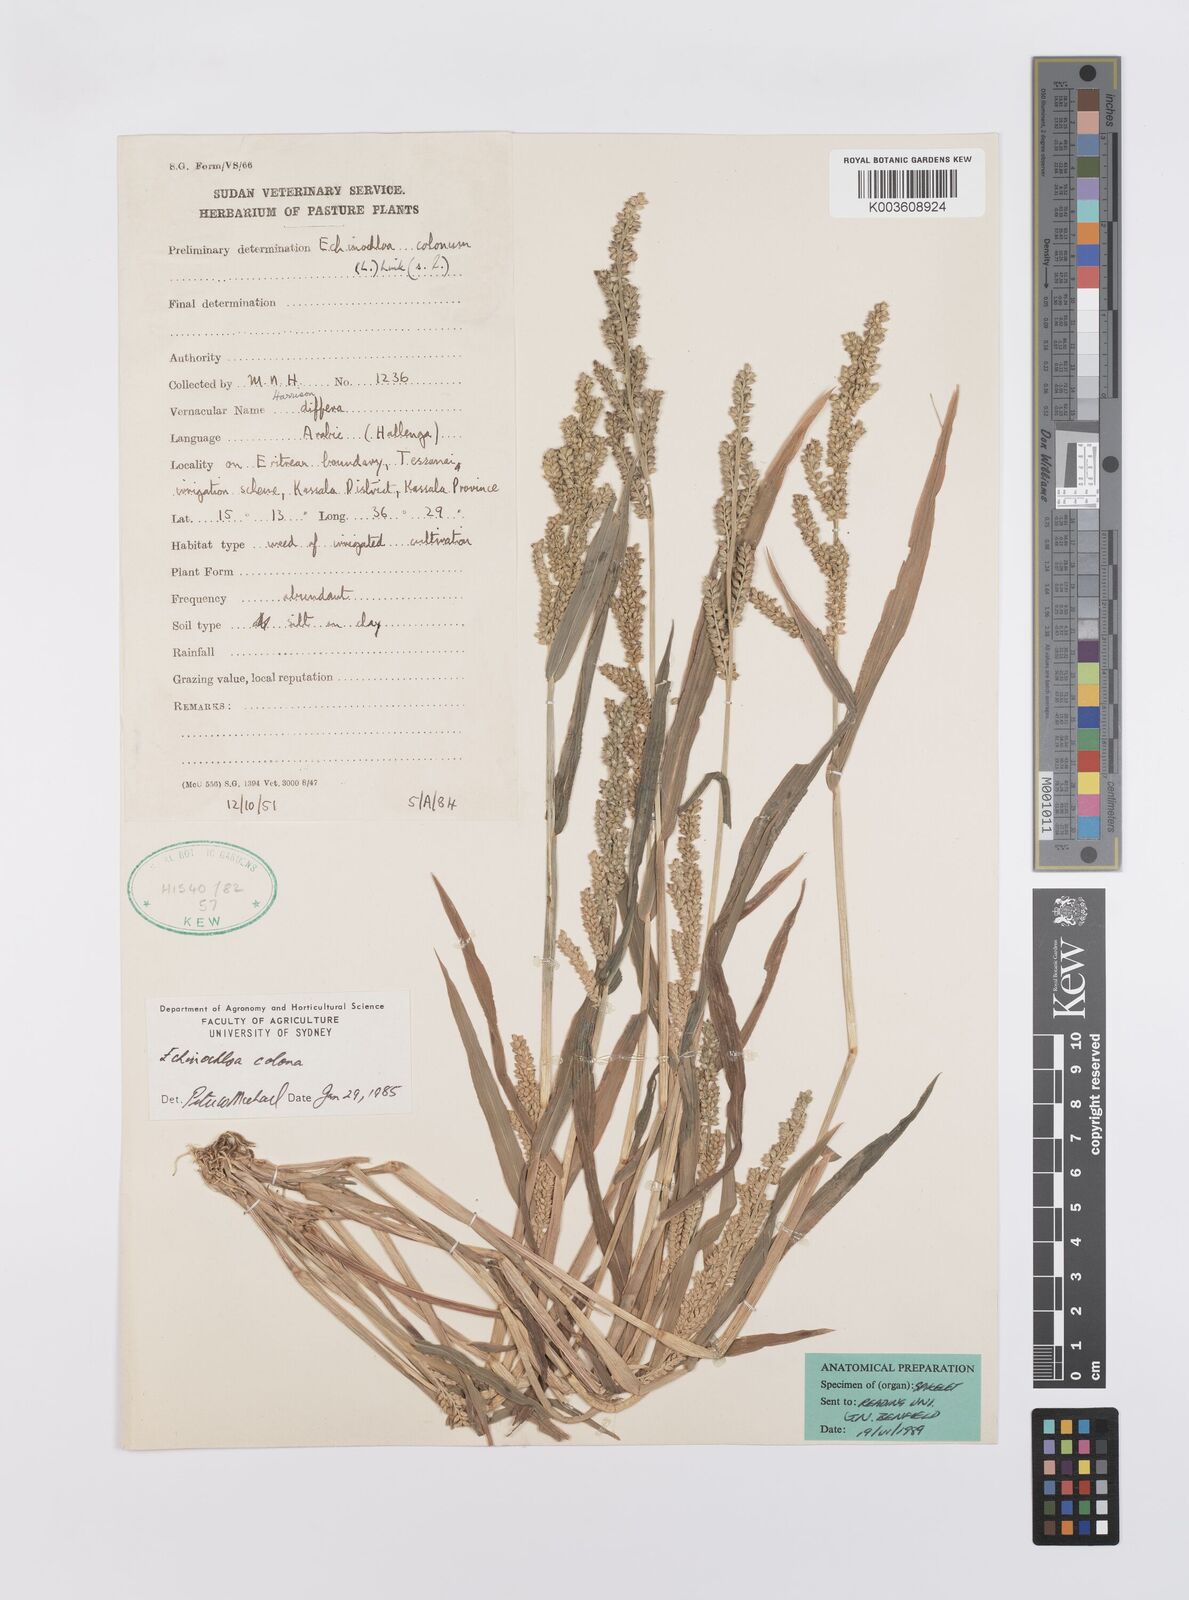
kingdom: Plantae
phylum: Tracheophyta
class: Liliopsida
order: Poales
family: Poaceae
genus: Echinochloa
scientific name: Echinochloa colonum
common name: Jungle rice
